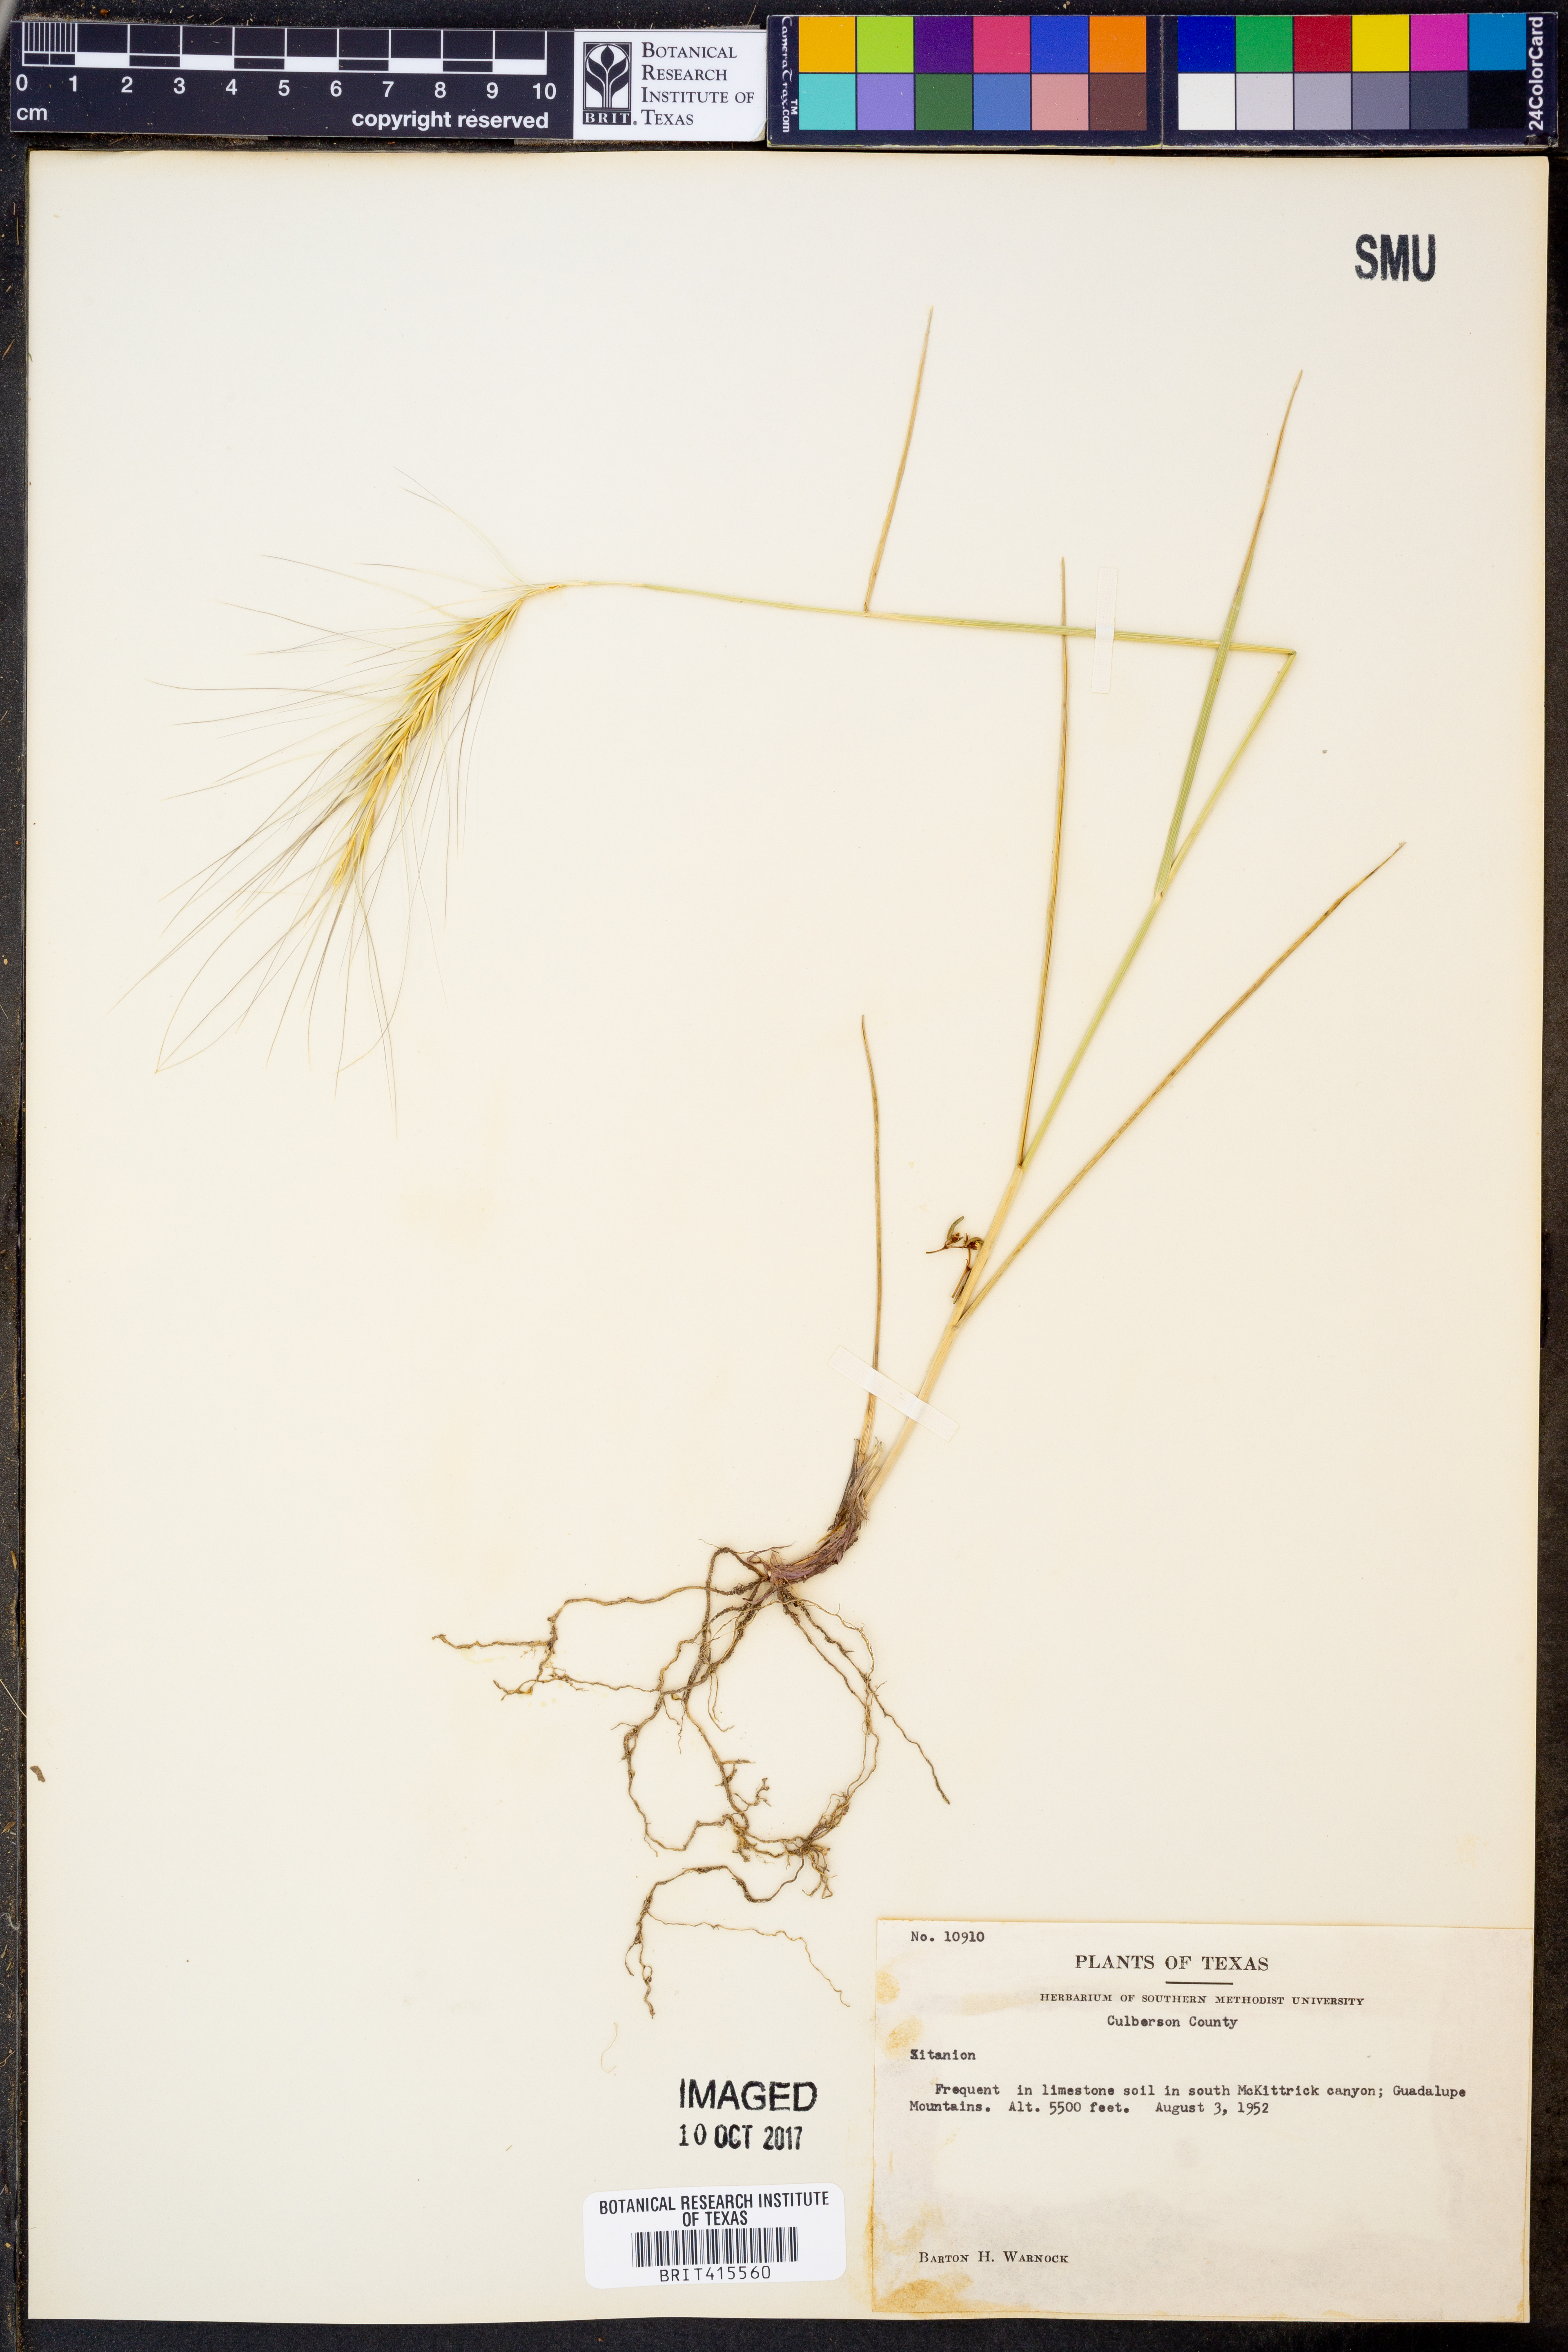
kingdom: Plantae
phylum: Tracheophyta
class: Liliopsida
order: Poales
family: Poaceae
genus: Elymus
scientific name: Elymus
